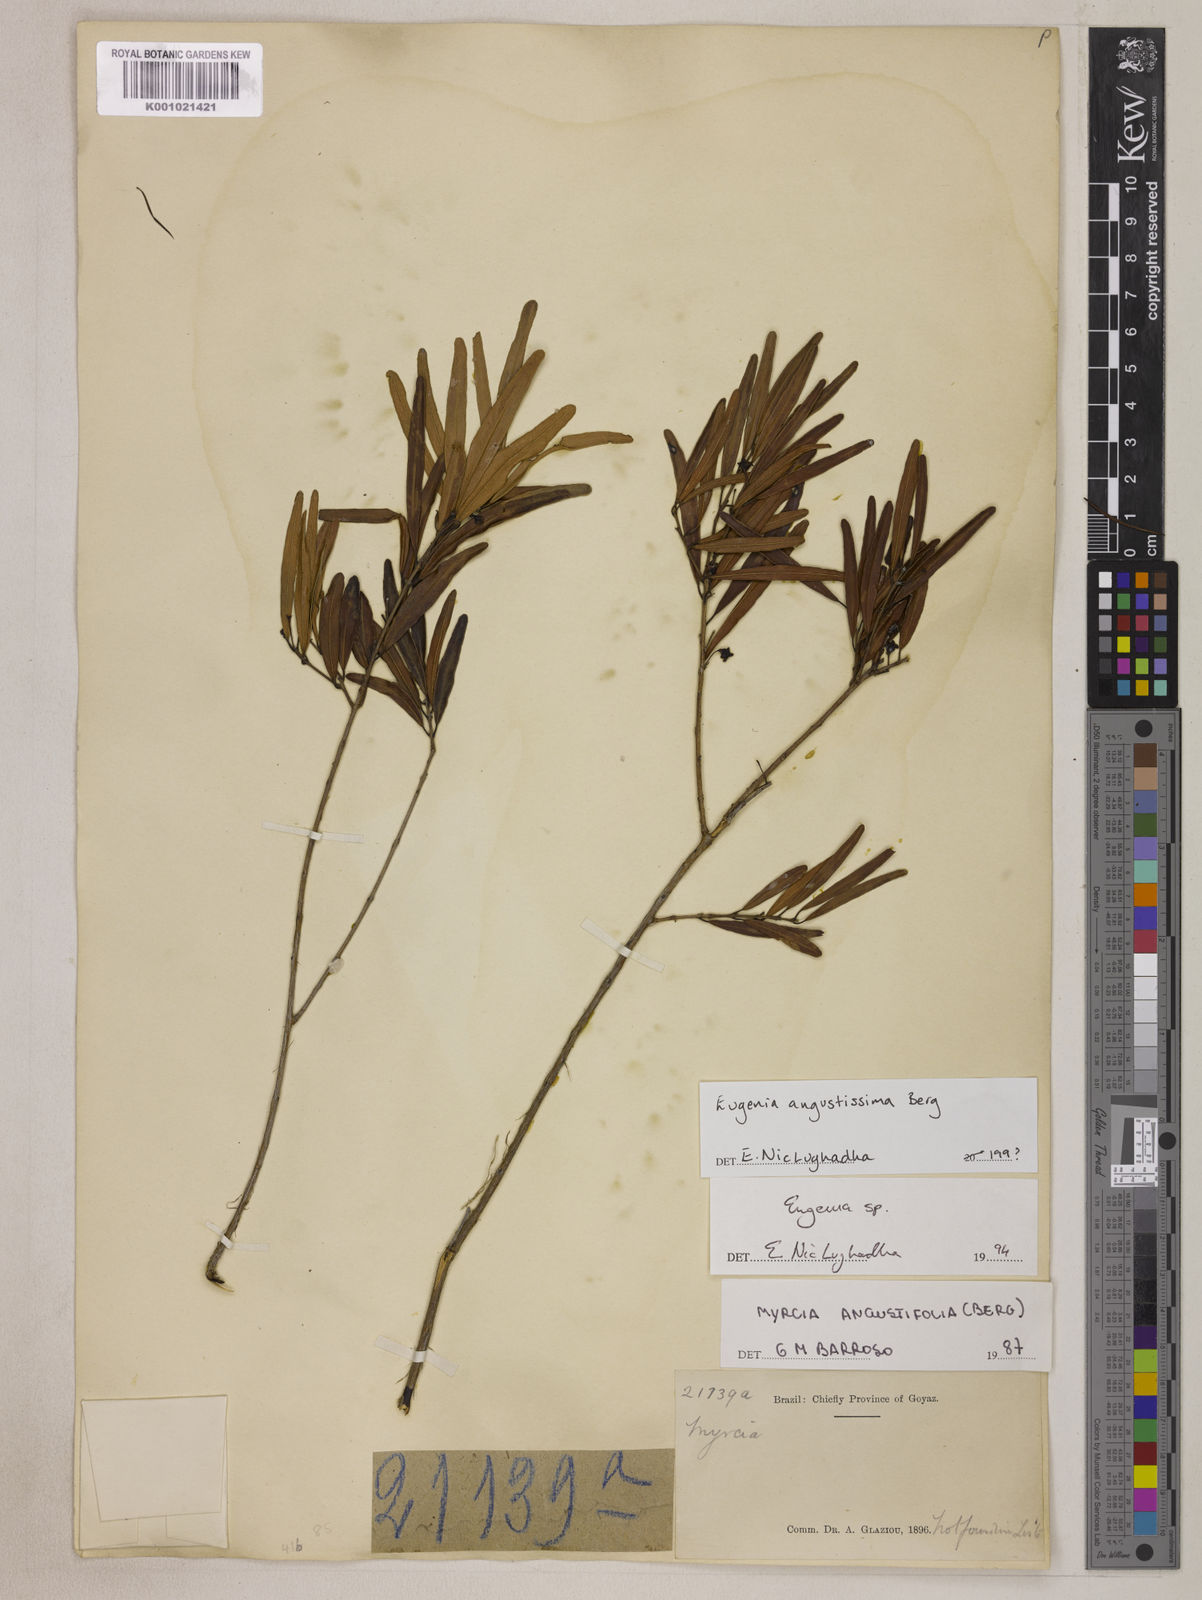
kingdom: Plantae
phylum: Tracheophyta
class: Magnoliopsida
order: Myrtales
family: Myrtaceae
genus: Eugenia
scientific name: Eugenia angustissima
